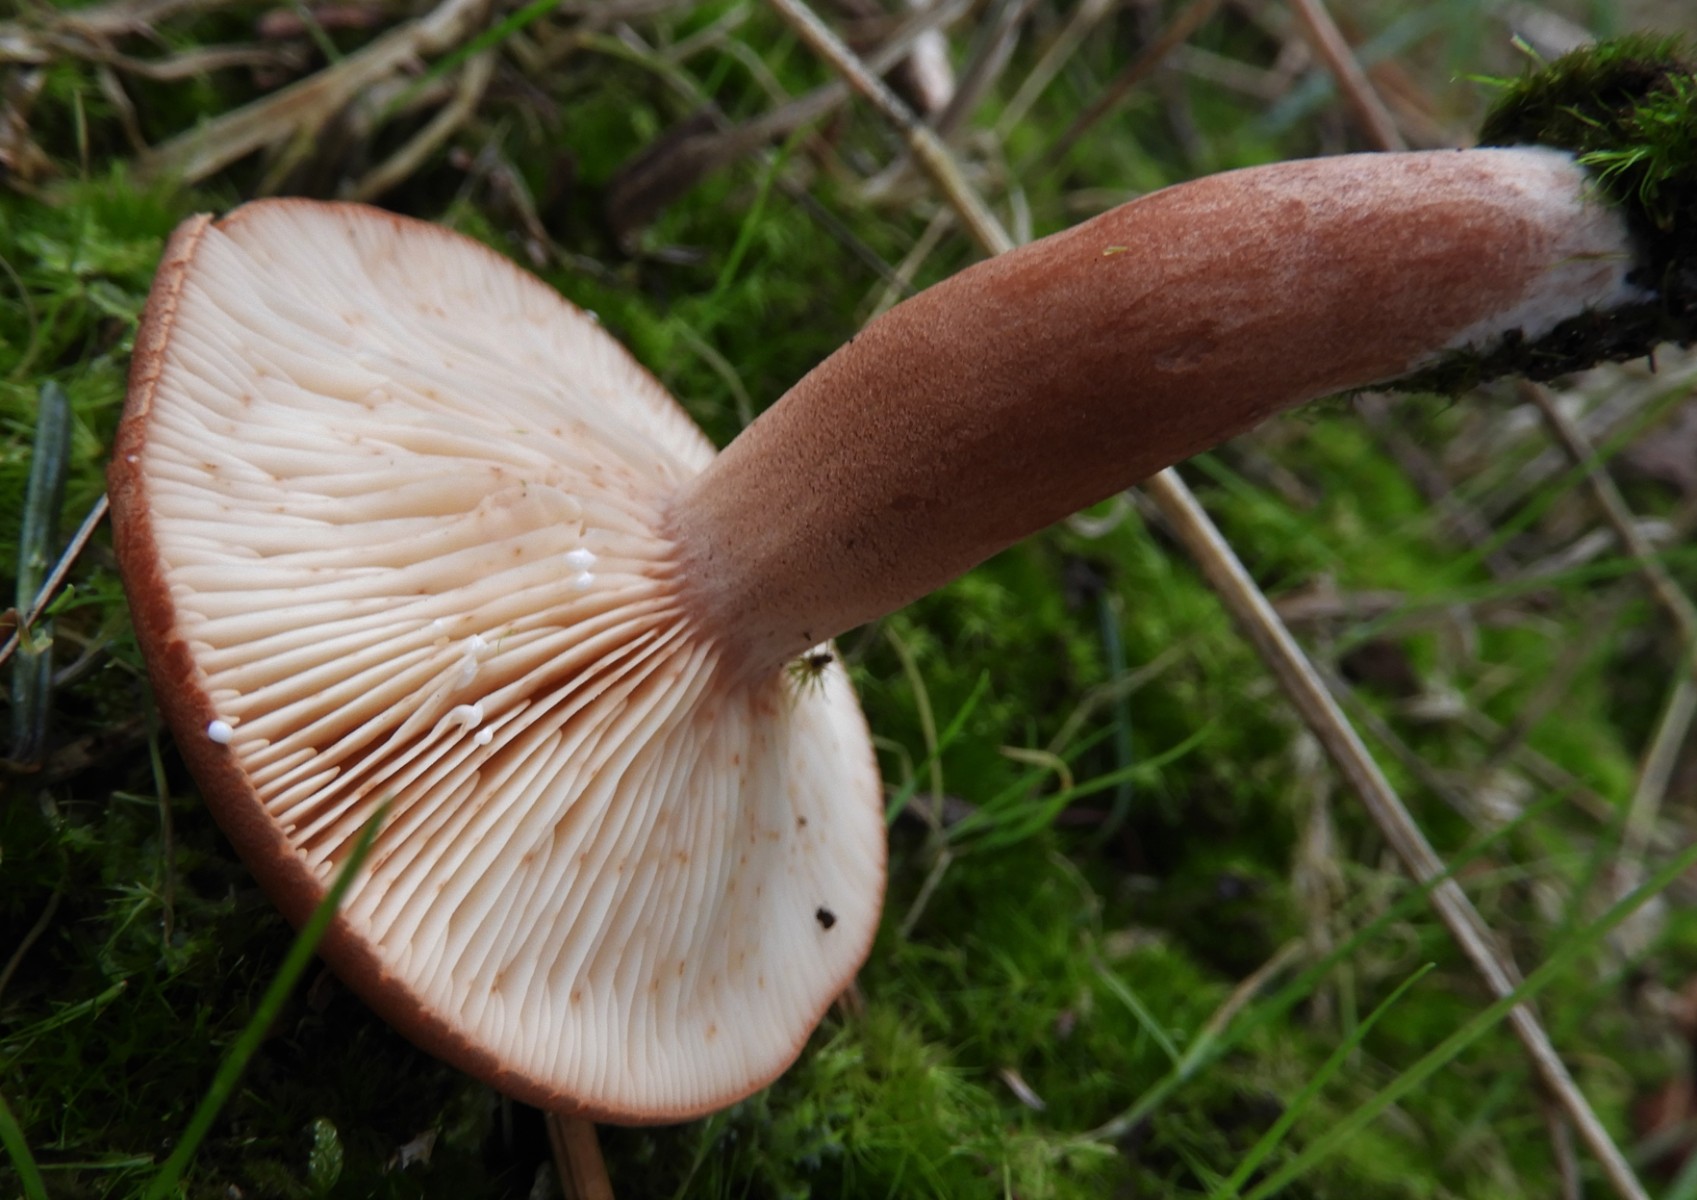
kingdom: Fungi
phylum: Basidiomycota
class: Agaricomycetes
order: Russulales
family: Russulaceae
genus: Lactarius
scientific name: Lactarius rufus
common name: rødbrun mælkehat
